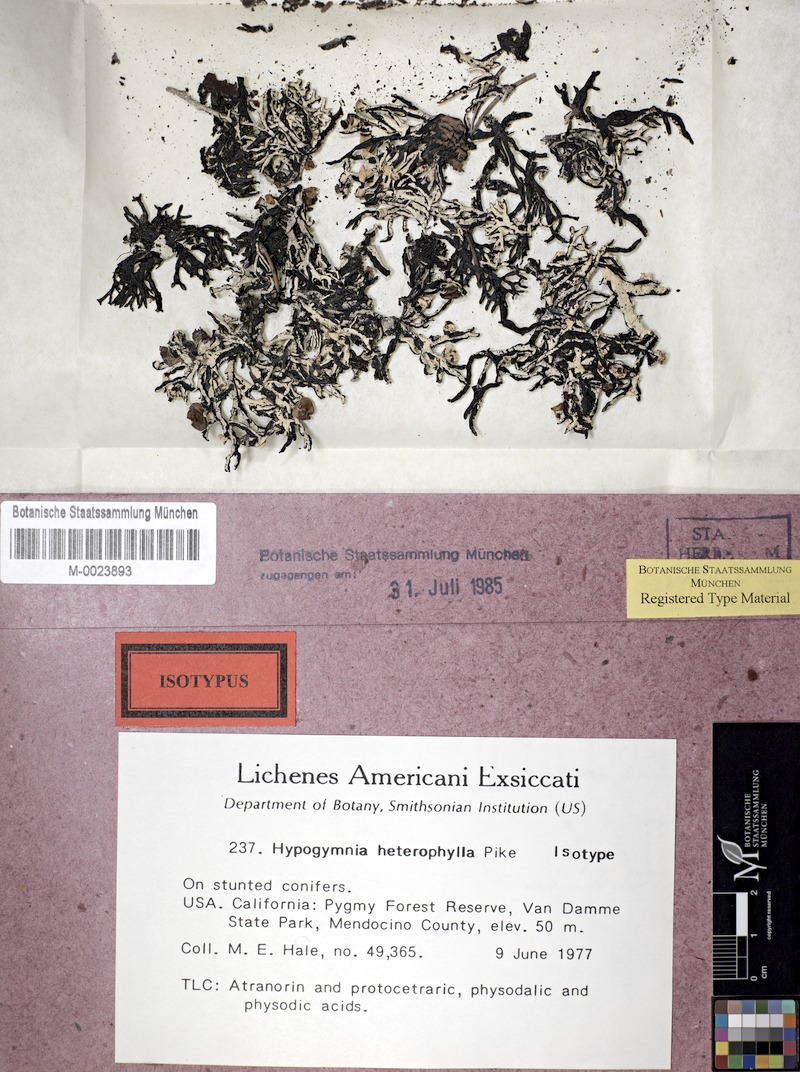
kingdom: Fungi
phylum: Ascomycota
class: Lecanoromycetes
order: Lecanorales
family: Parmeliaceae
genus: Hypogymnia
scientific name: Hypogymnia heterophylla
